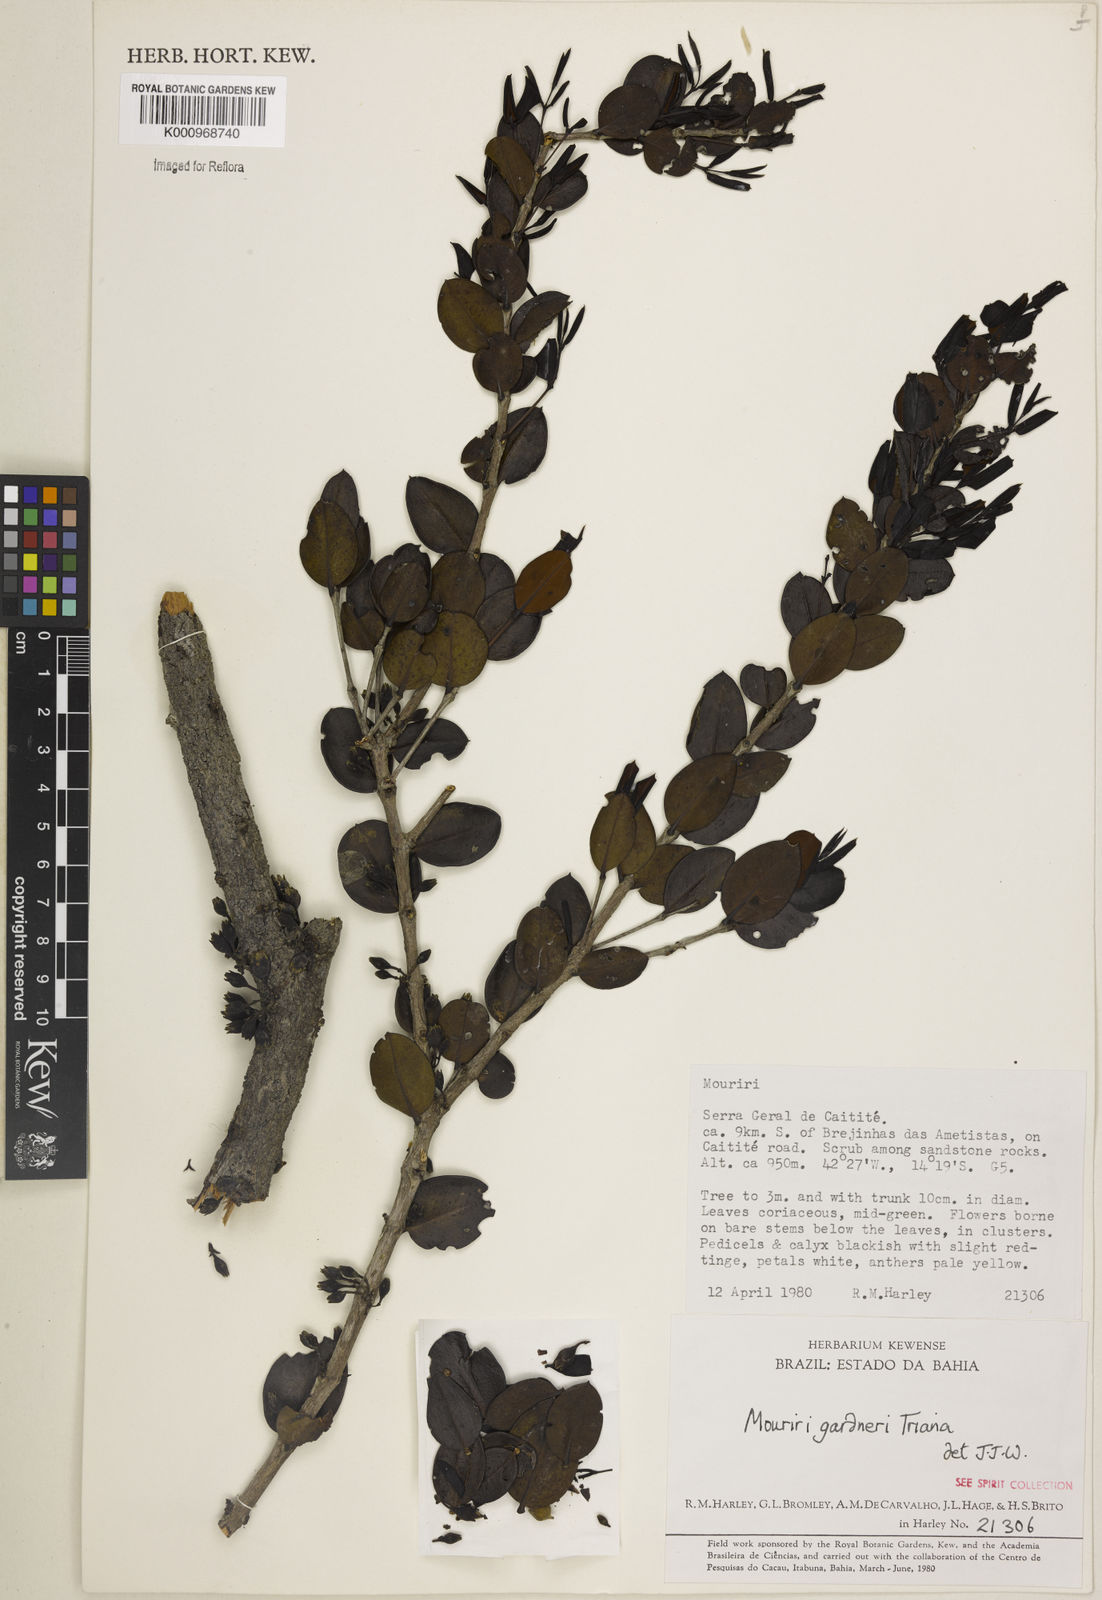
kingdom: Plantae
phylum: Tracheophyta
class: Magnoliopsida
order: Myrtales
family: Melastomataceae
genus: Mouriri
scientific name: Mouriri gardneri
